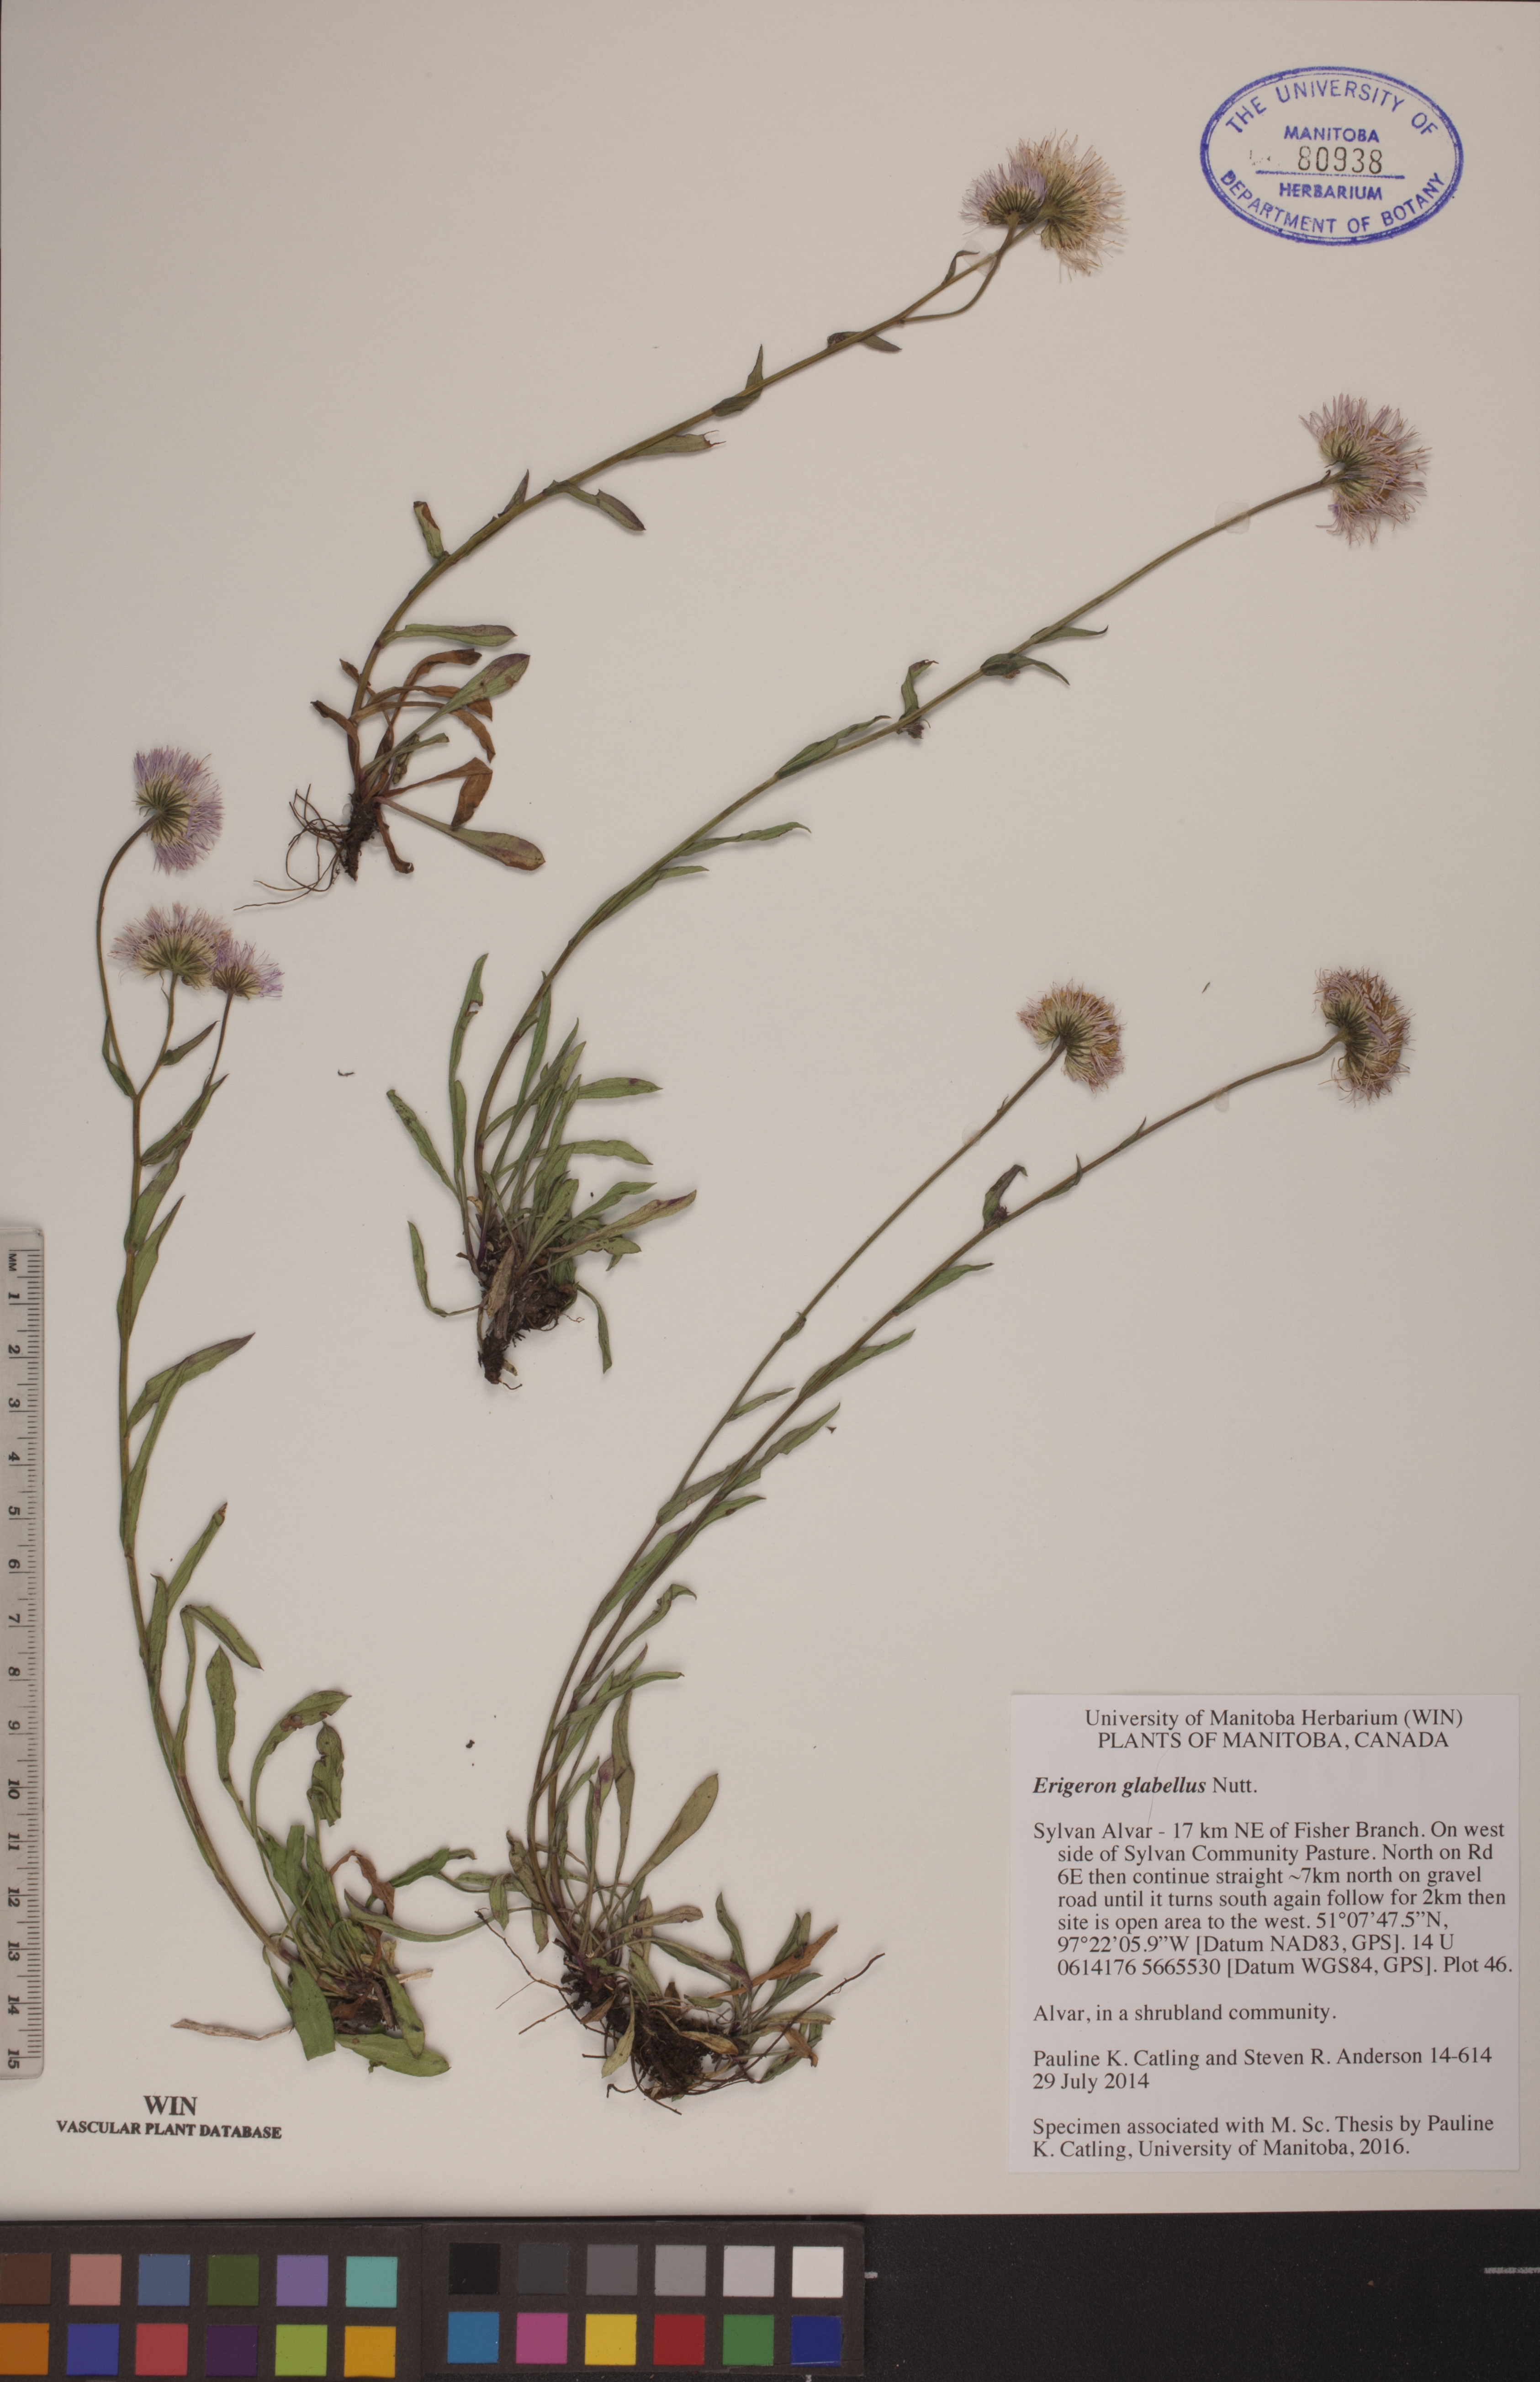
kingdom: Plantae
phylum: Tracheophyta
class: Magnoliopsida
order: Asterales
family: Asteraceae
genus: Erigeron
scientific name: Erigeron glabellus
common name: Smooth fleabane
